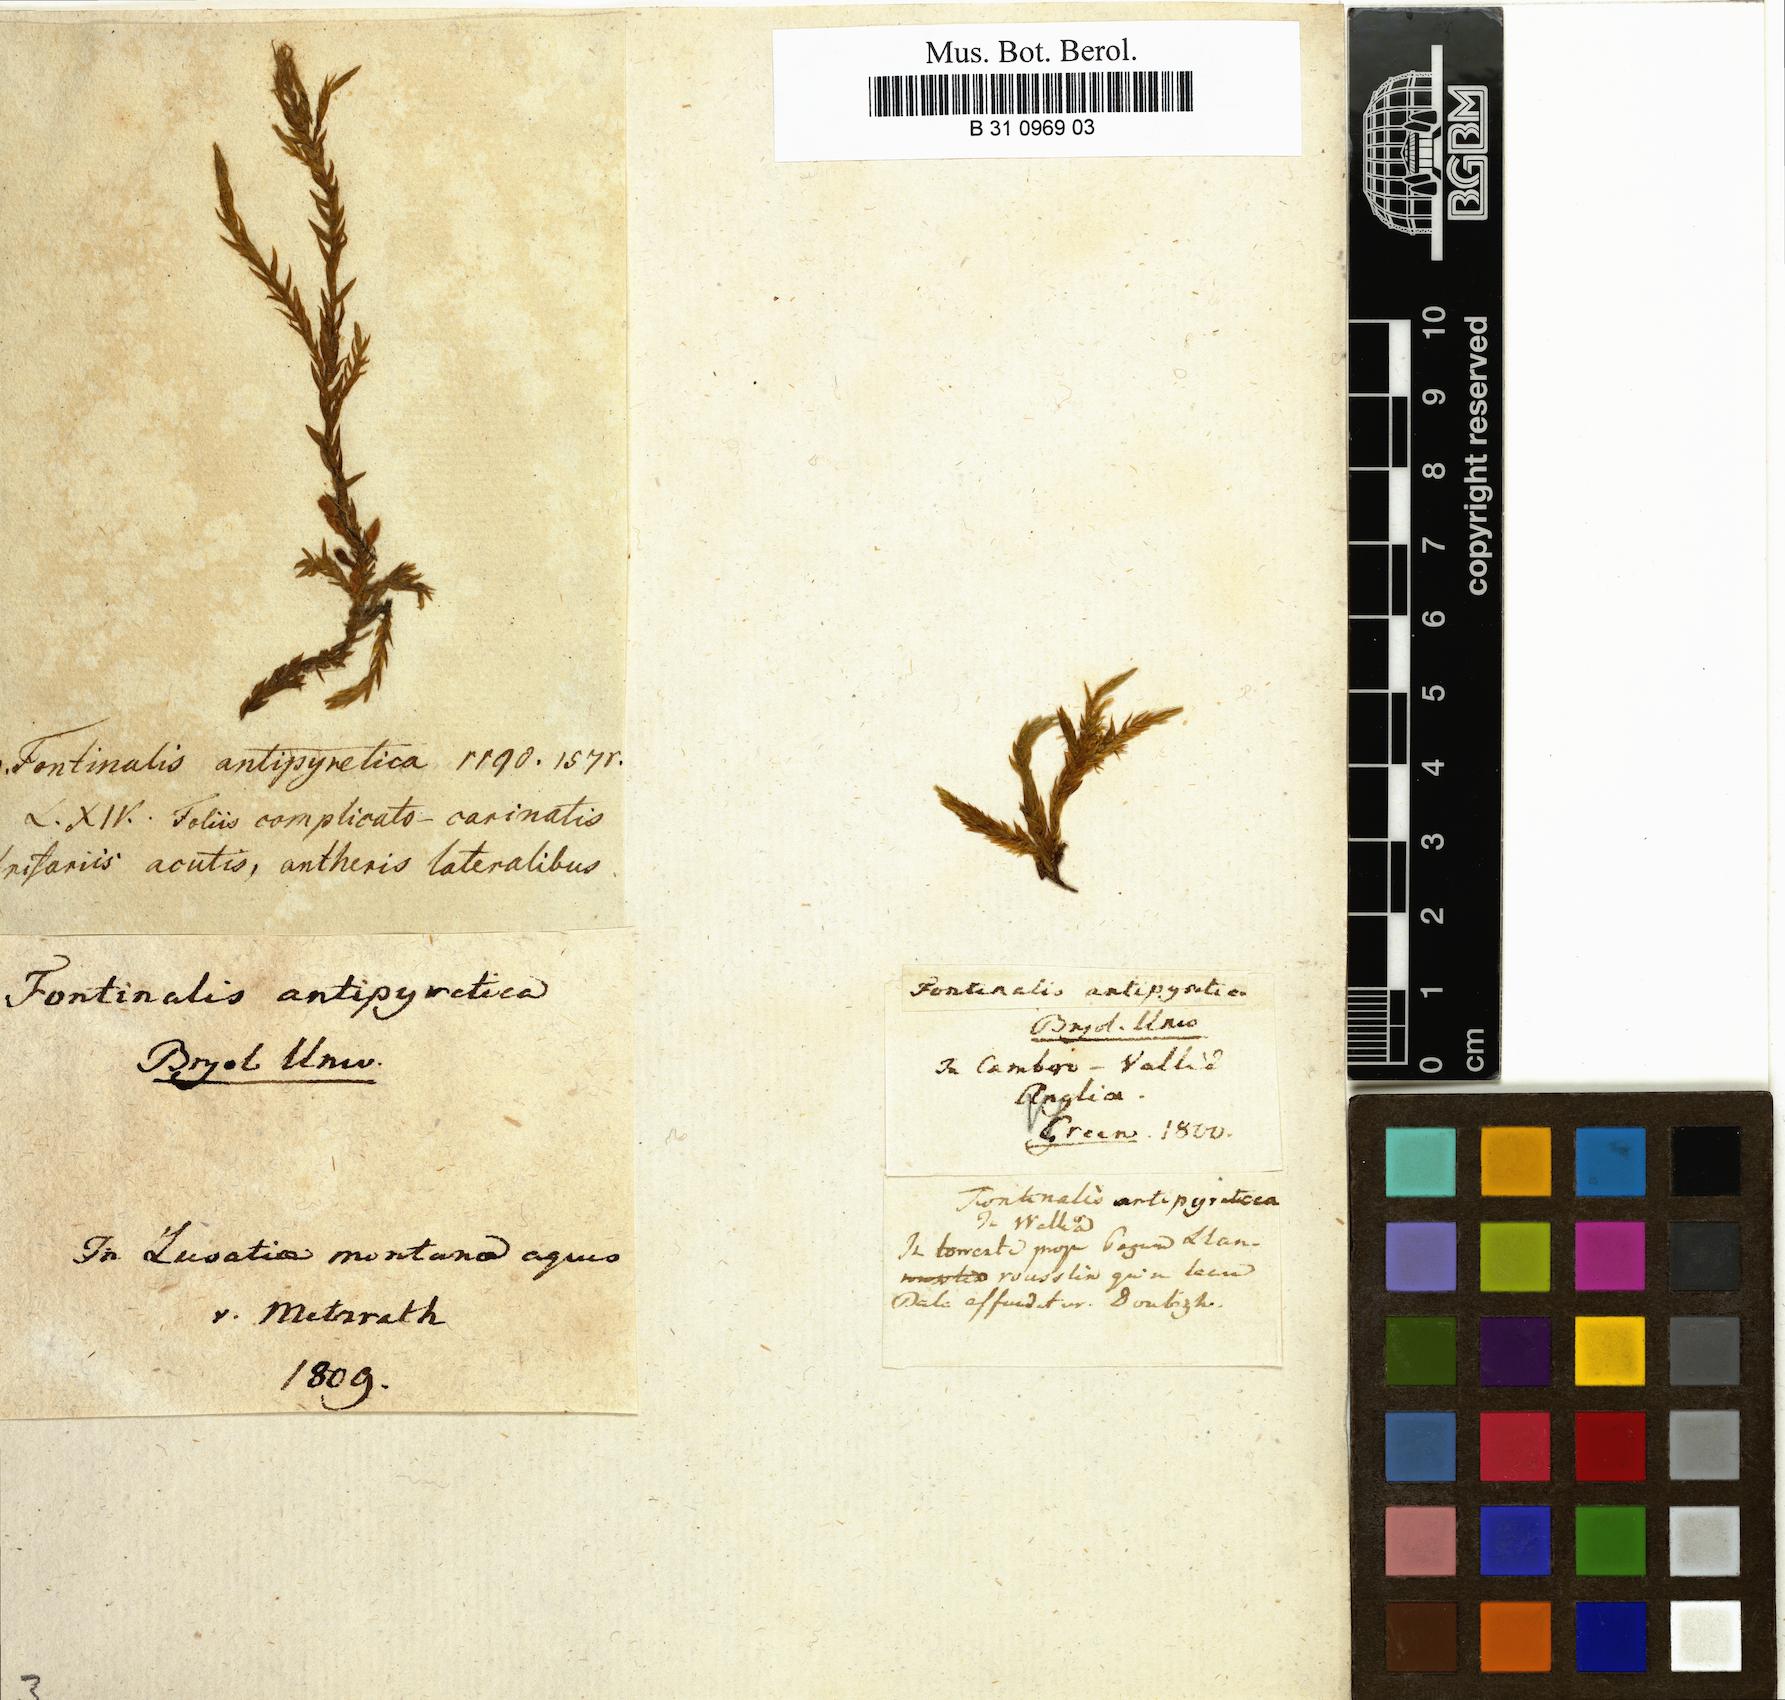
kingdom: Plantae
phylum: Bryophyta
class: Bryopsida
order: Hypnales
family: Fontinalaceae
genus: Fontinalis
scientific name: Fontinalis antipyretica
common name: Greater water-moss
